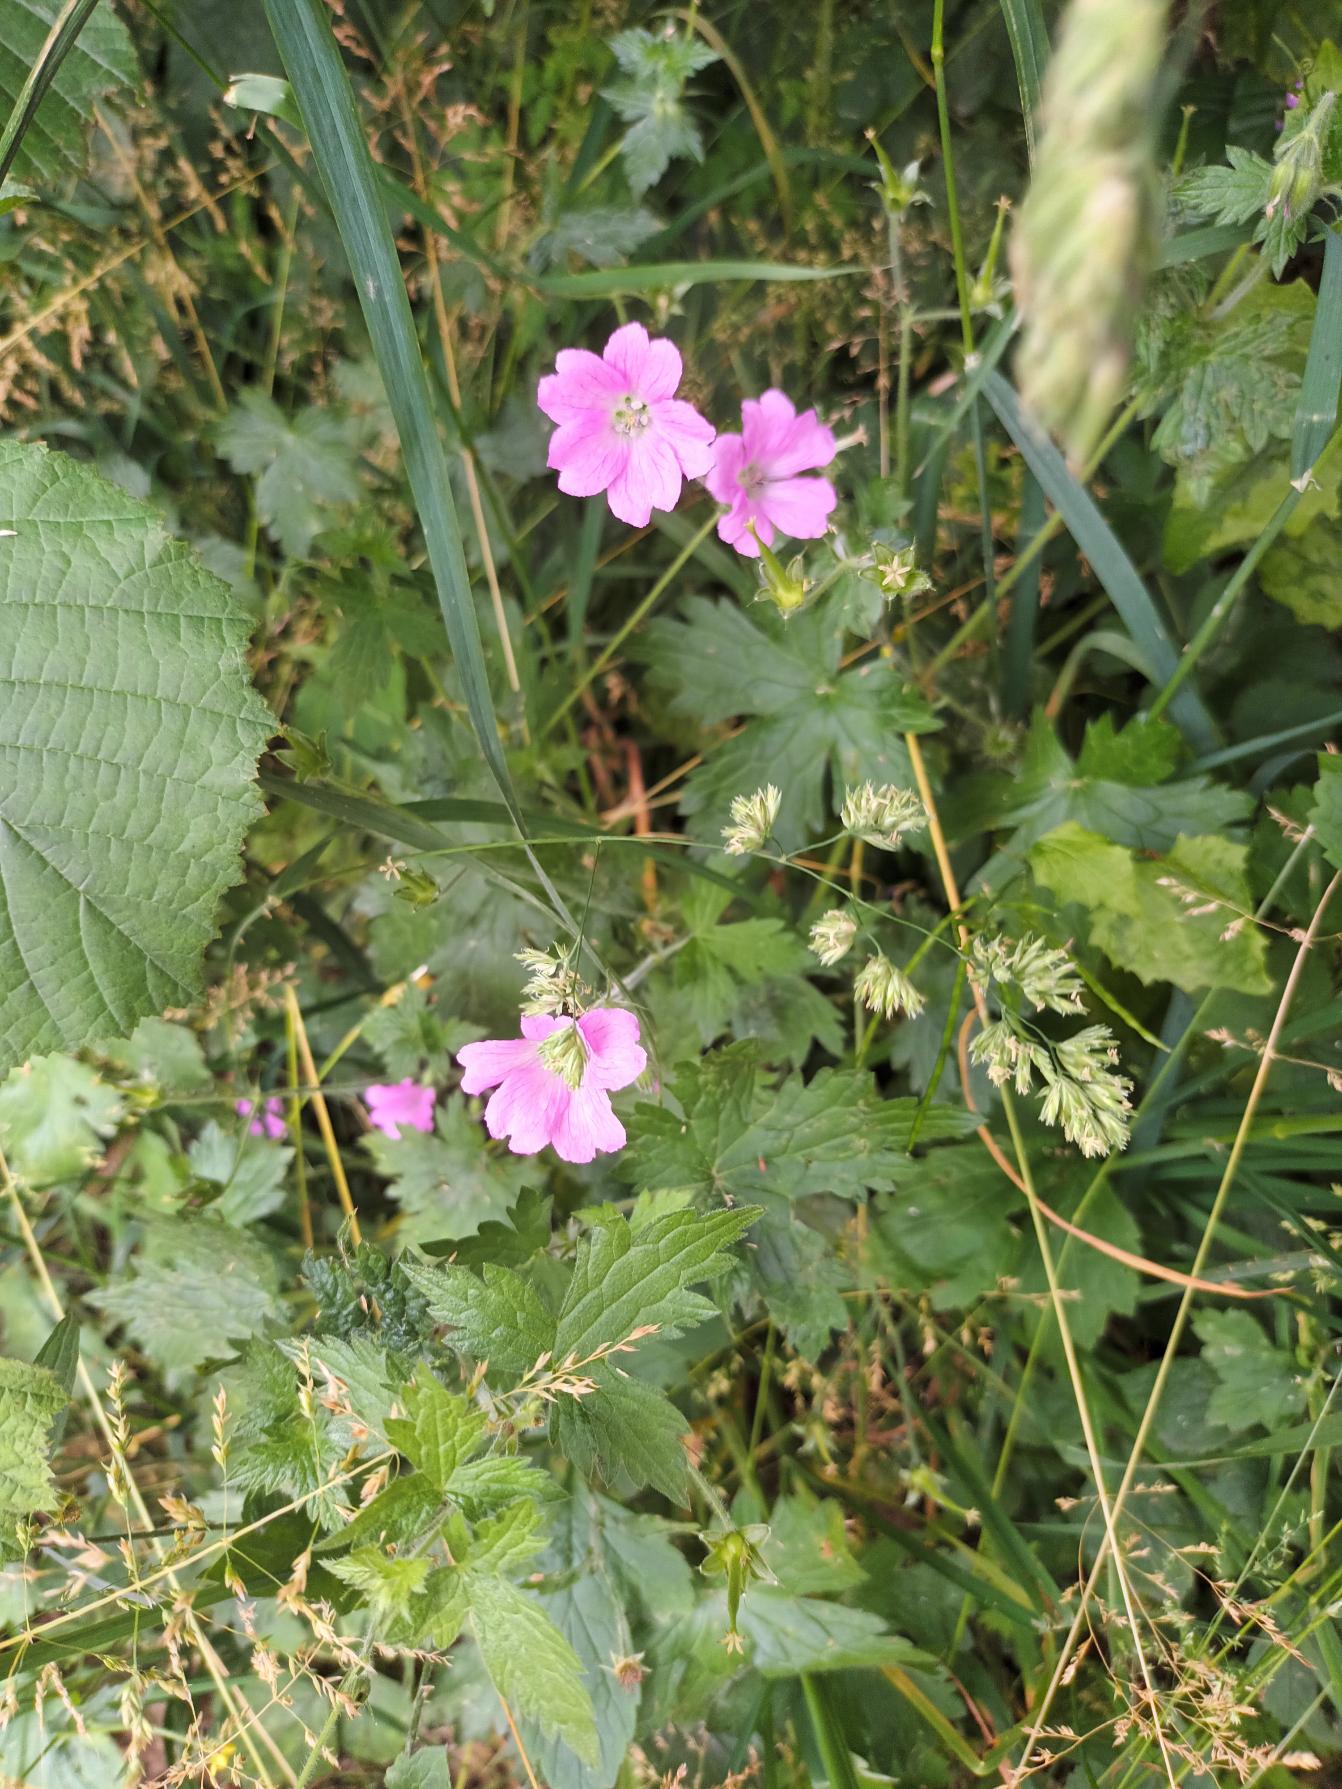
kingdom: Plantae
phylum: Tracheophyta
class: Magnoliopsida
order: Geraniales
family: Geraniaceae
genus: Geranium
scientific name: Geranium endressii
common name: Spansk storkenæb
